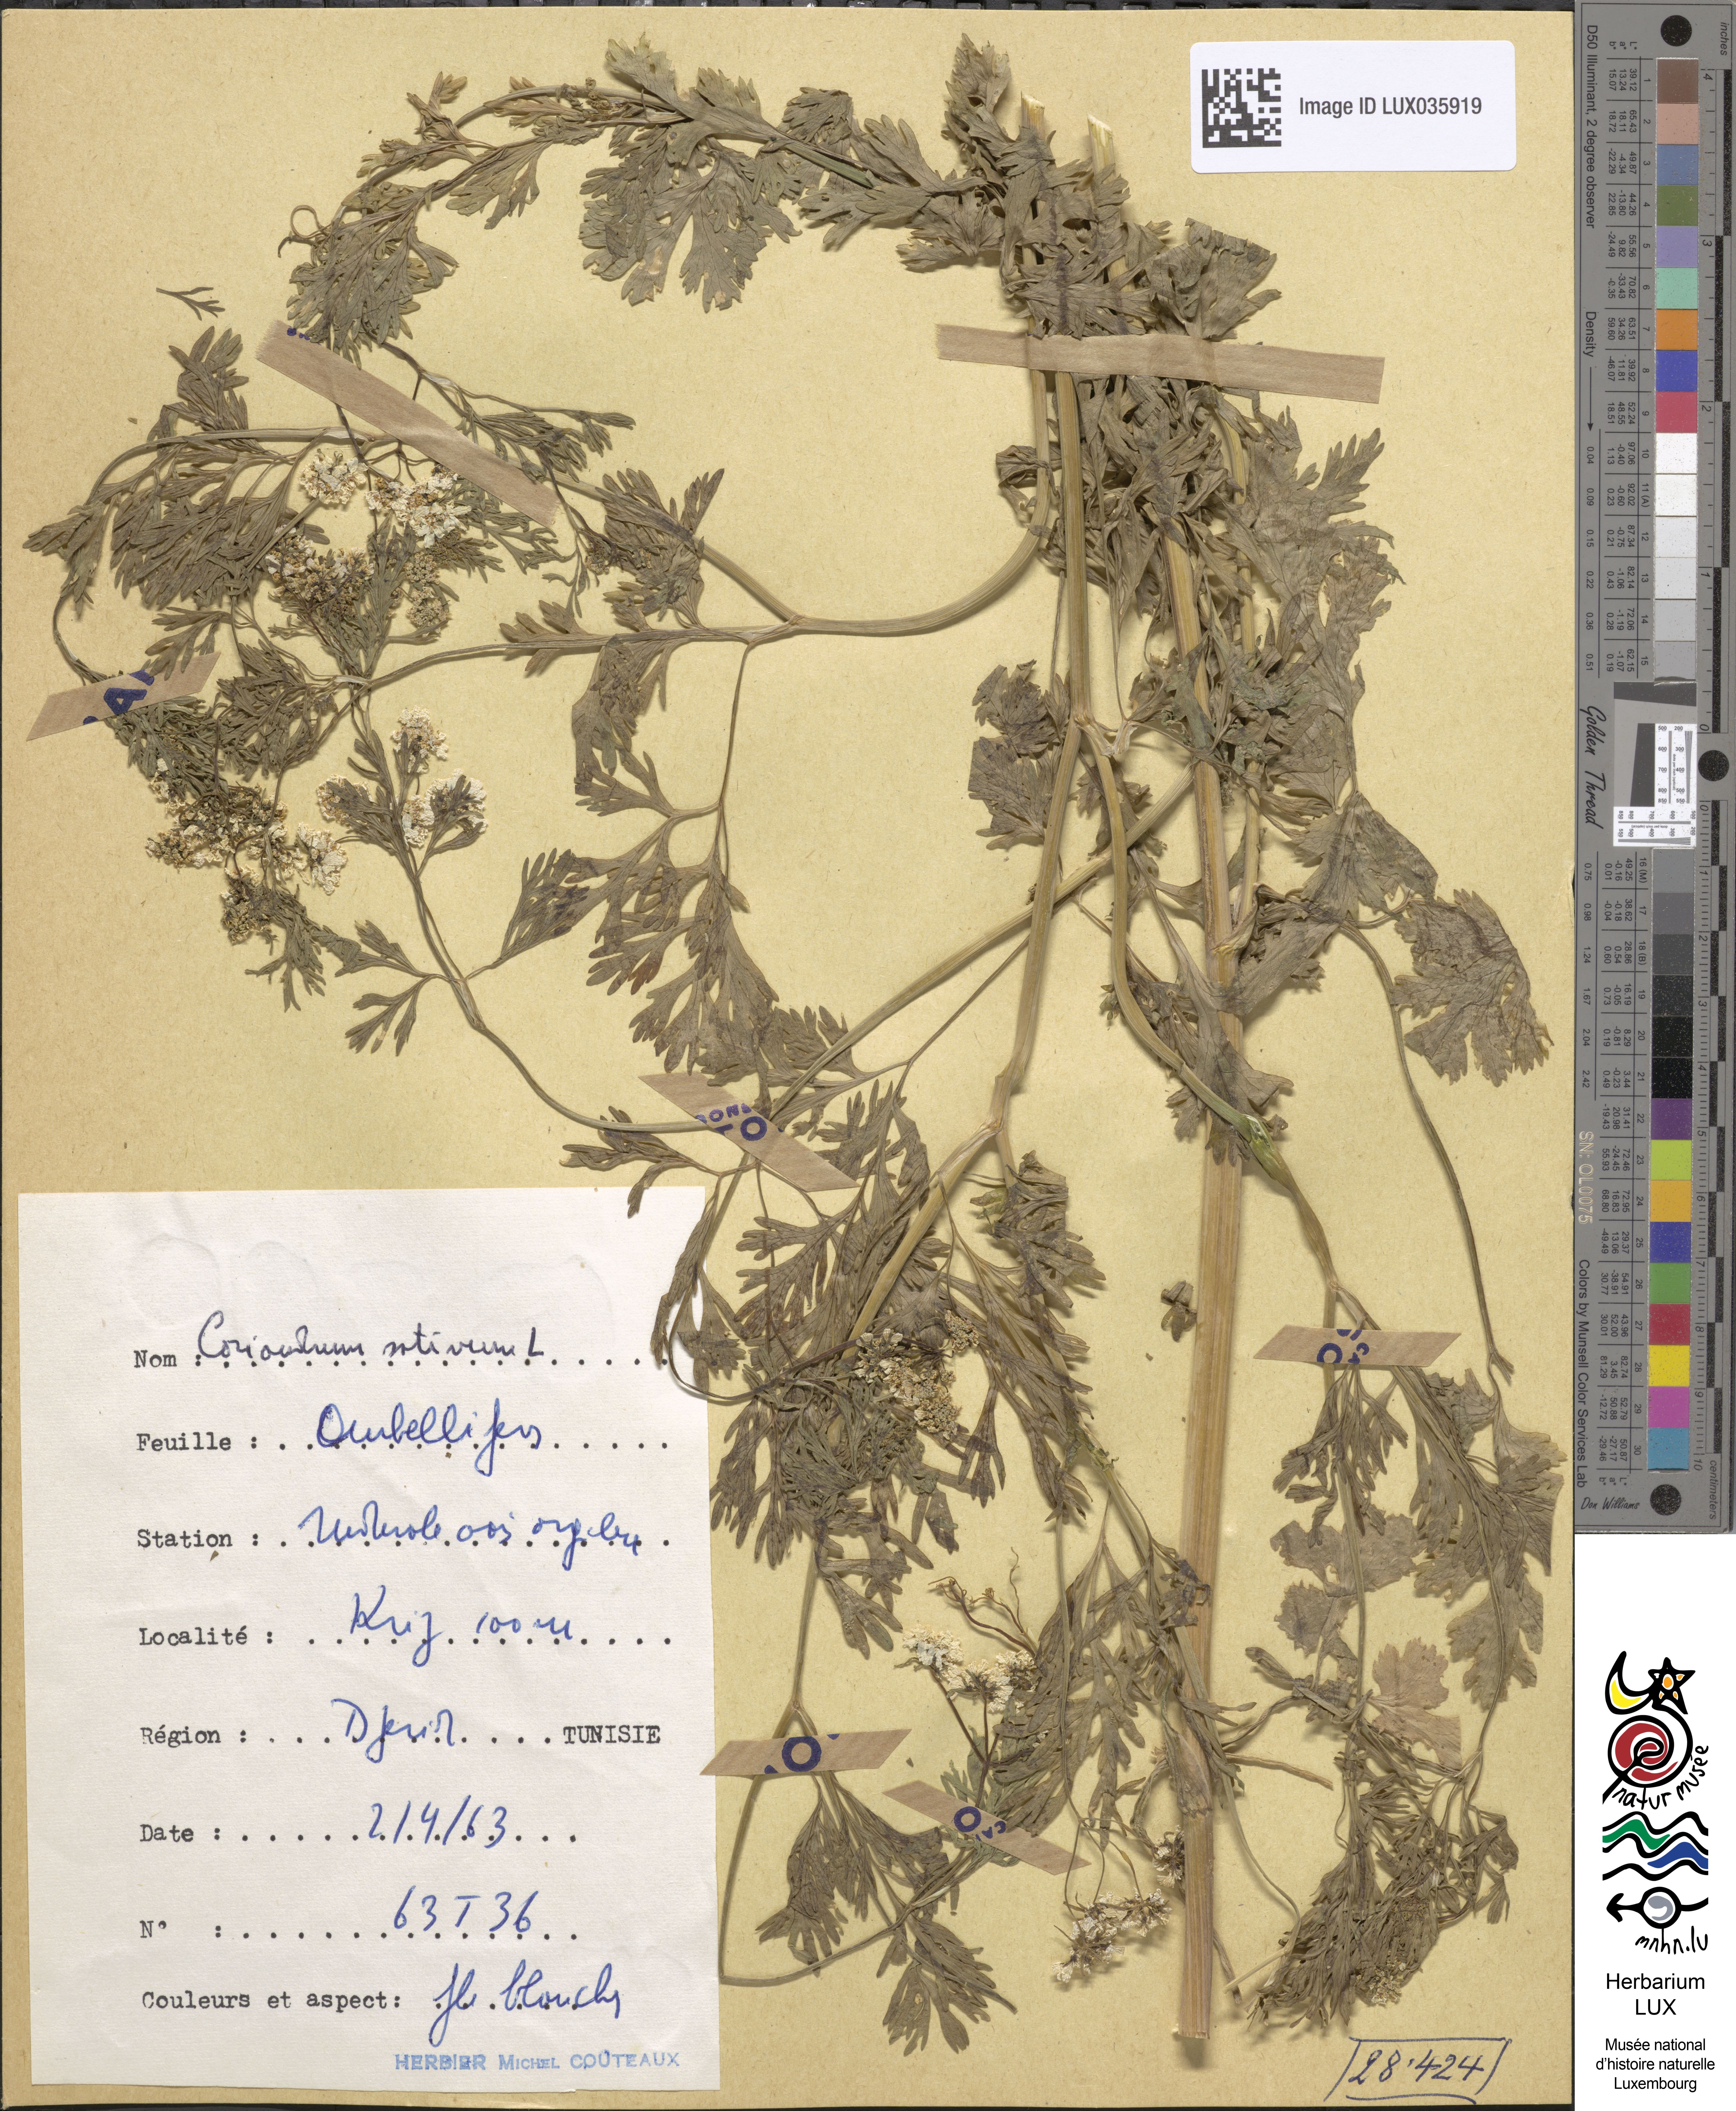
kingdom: Plantae
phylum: Tracheophyta
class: Magnoliopsida
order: Apiales
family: Apiaceae
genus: Coriandrum
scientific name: Coriandrum sativum
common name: Coriander
